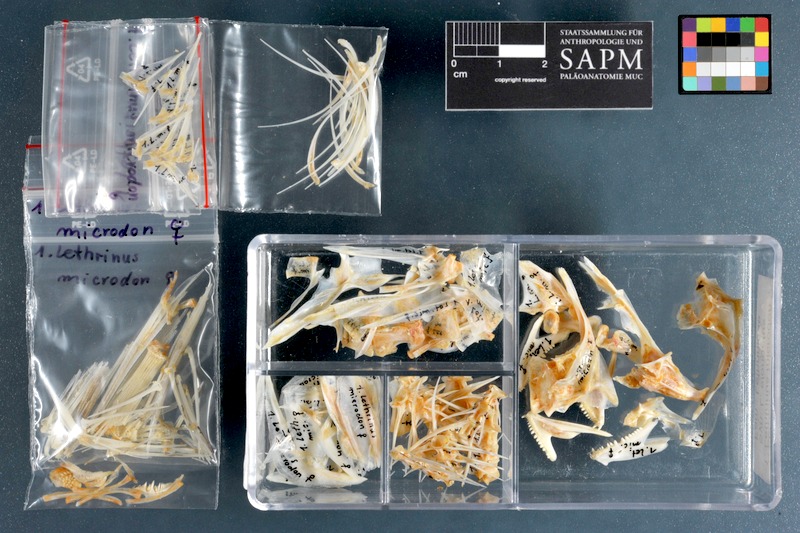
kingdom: Animalia
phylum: Chordata
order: Perciformes
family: Lethrinidae
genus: Lethrinus
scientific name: Lethrinus microdon
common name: Smalltooth emperor
